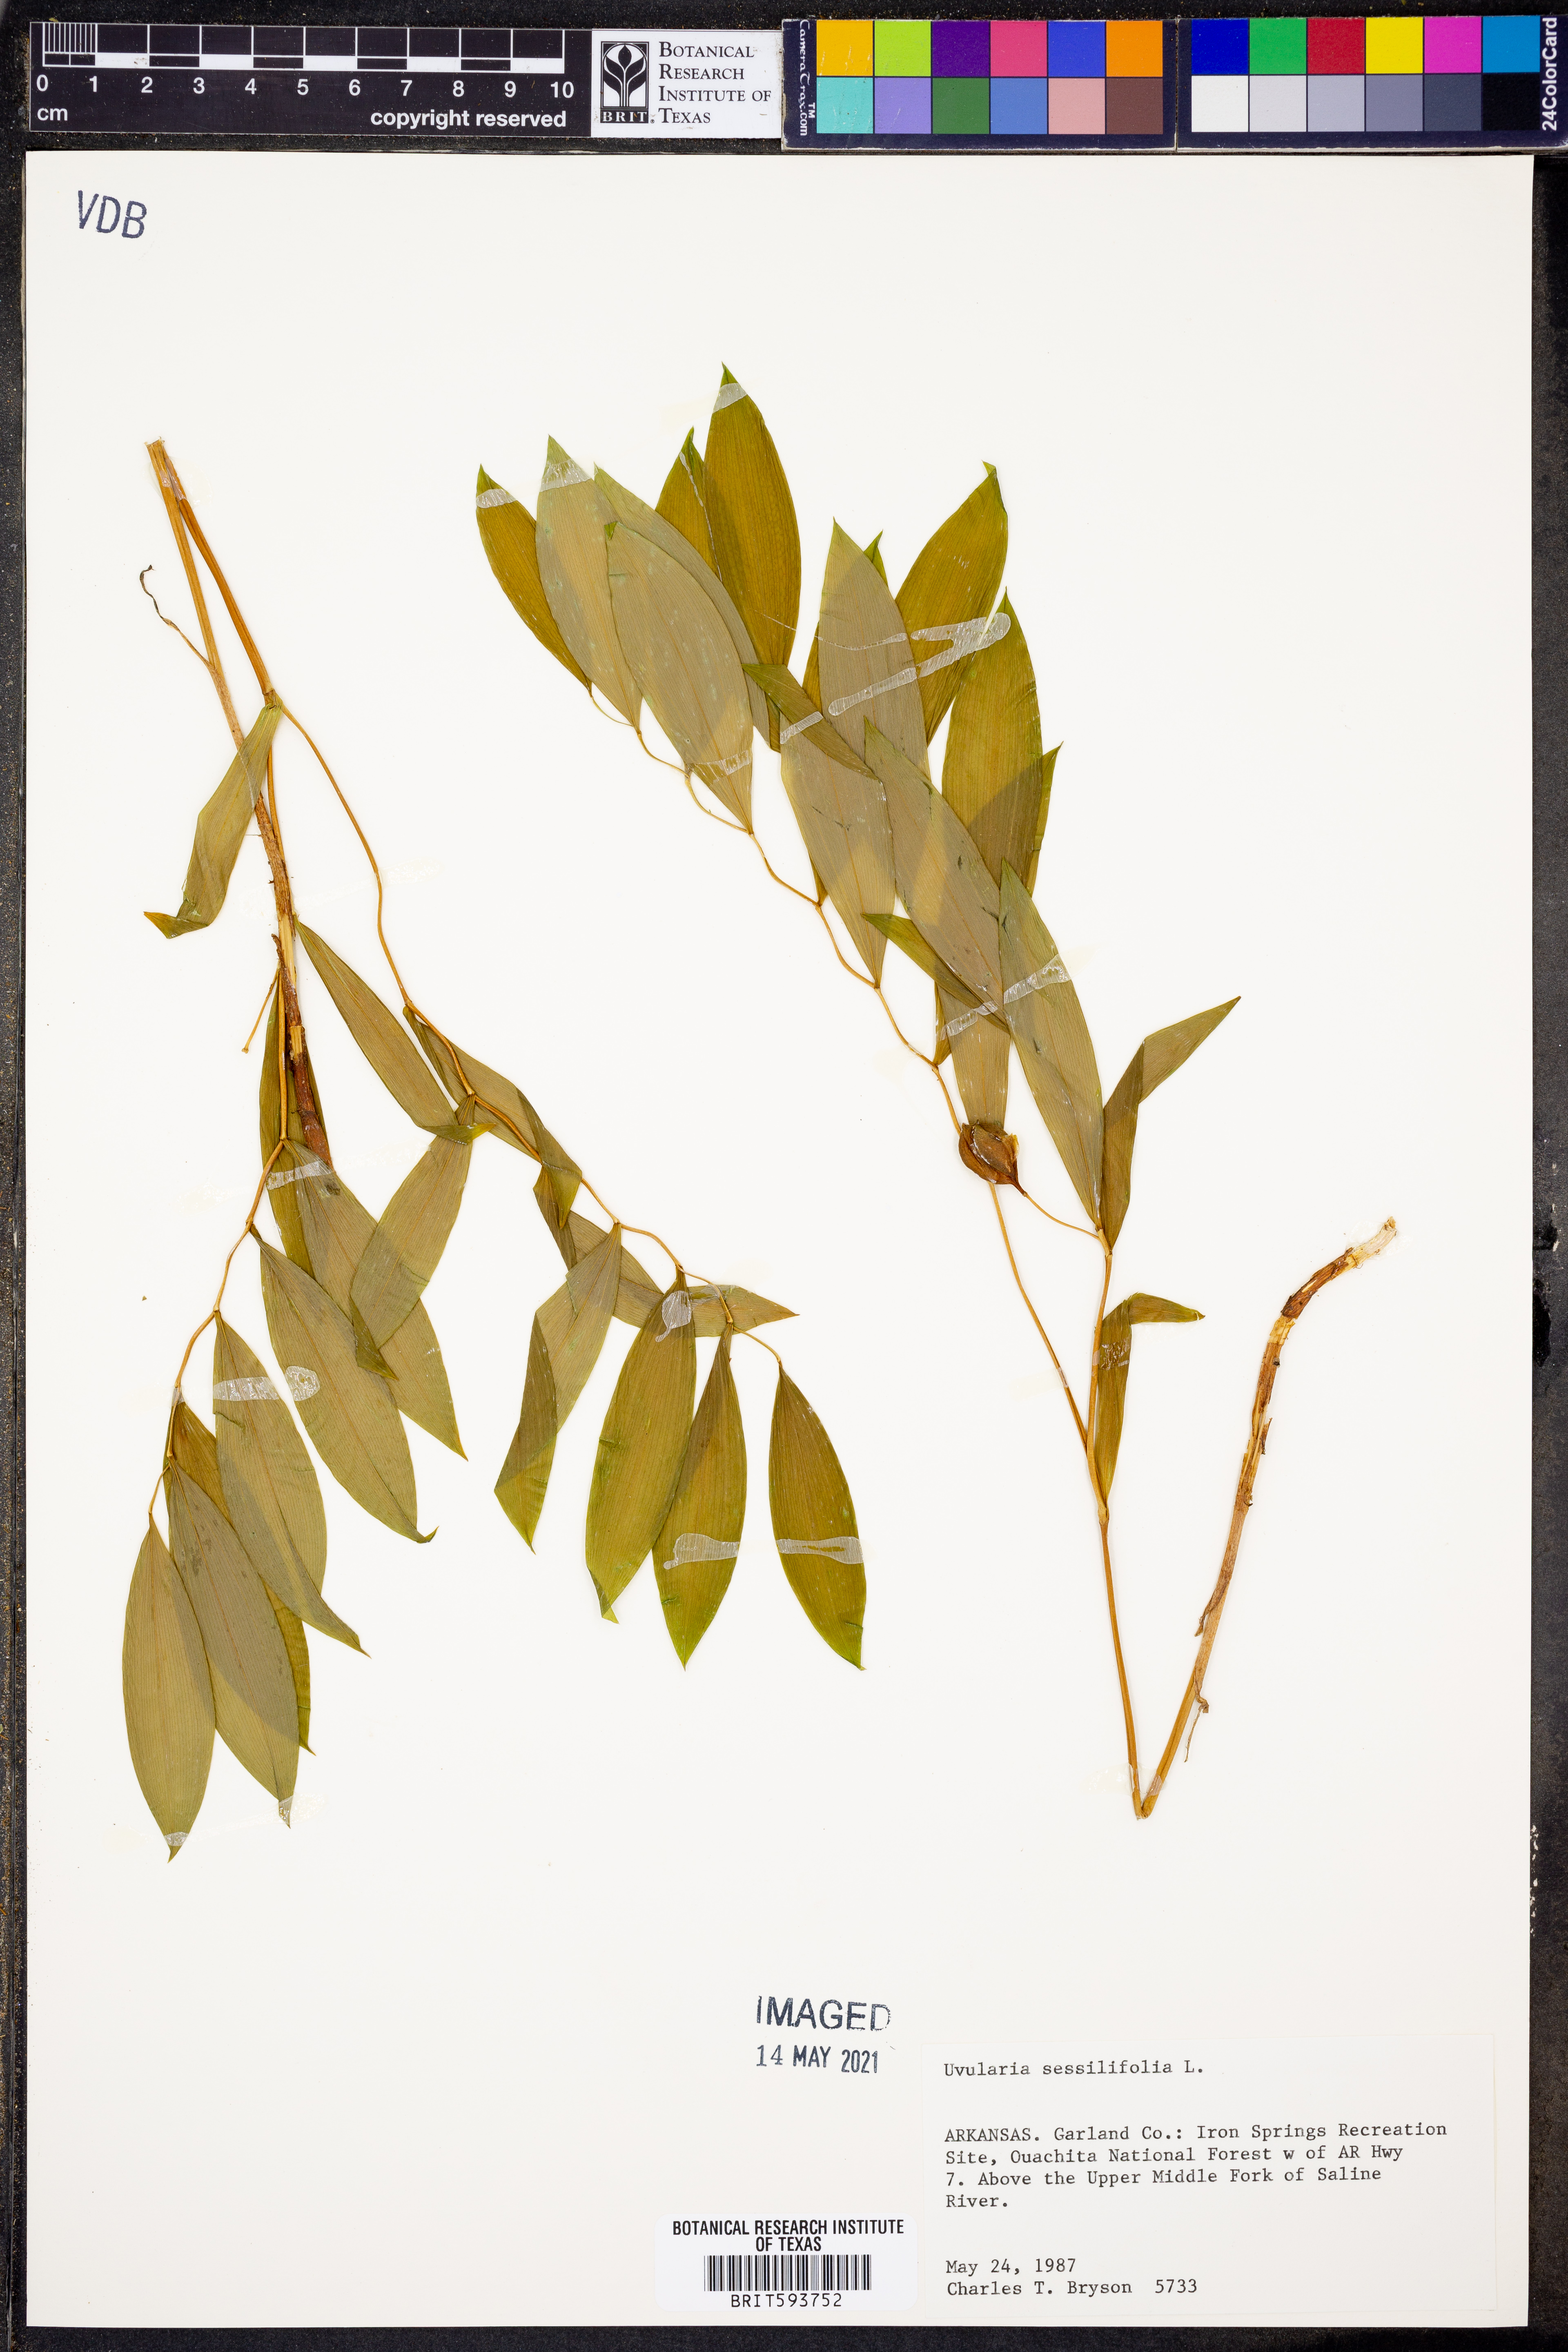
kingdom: Plantae
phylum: Tracheophyta
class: Liliopsida
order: Liliales
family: Colchicaceae
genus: Uvularia
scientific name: Uvularia sessilifolia
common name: Straw-lily
